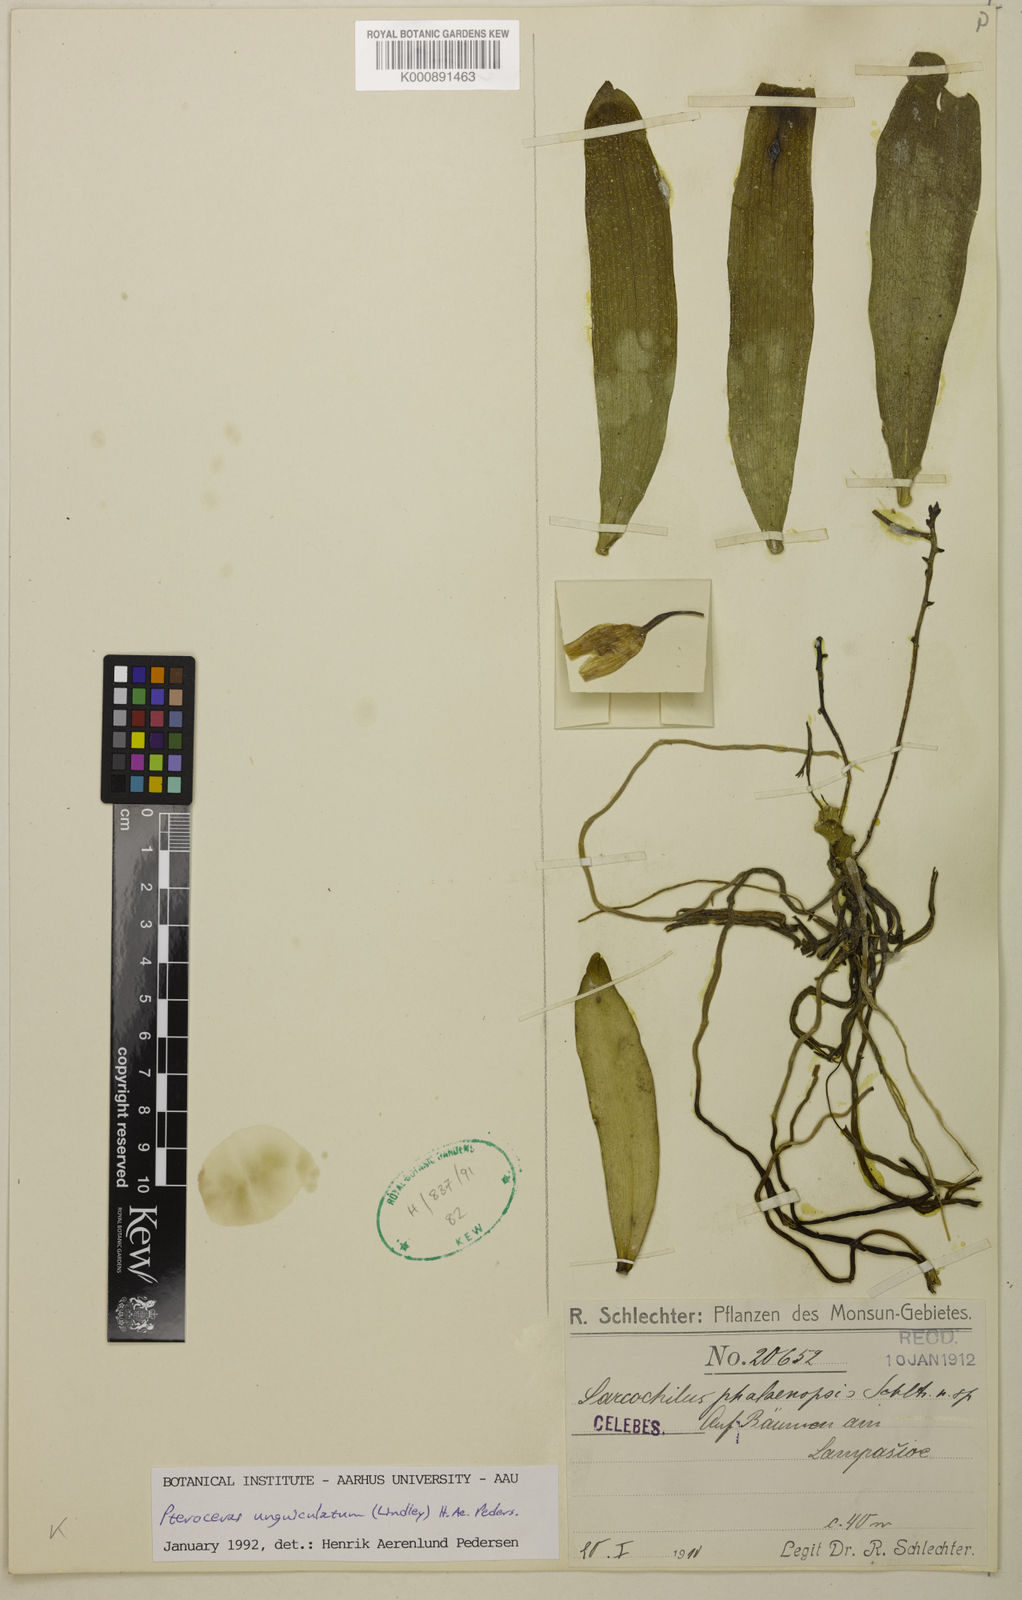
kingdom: Plantae
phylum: Tracheophyta
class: Liliopsida
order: Asparagales
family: Orchidaceae
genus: Brachypeza
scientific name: Brachypeza unguiculata
